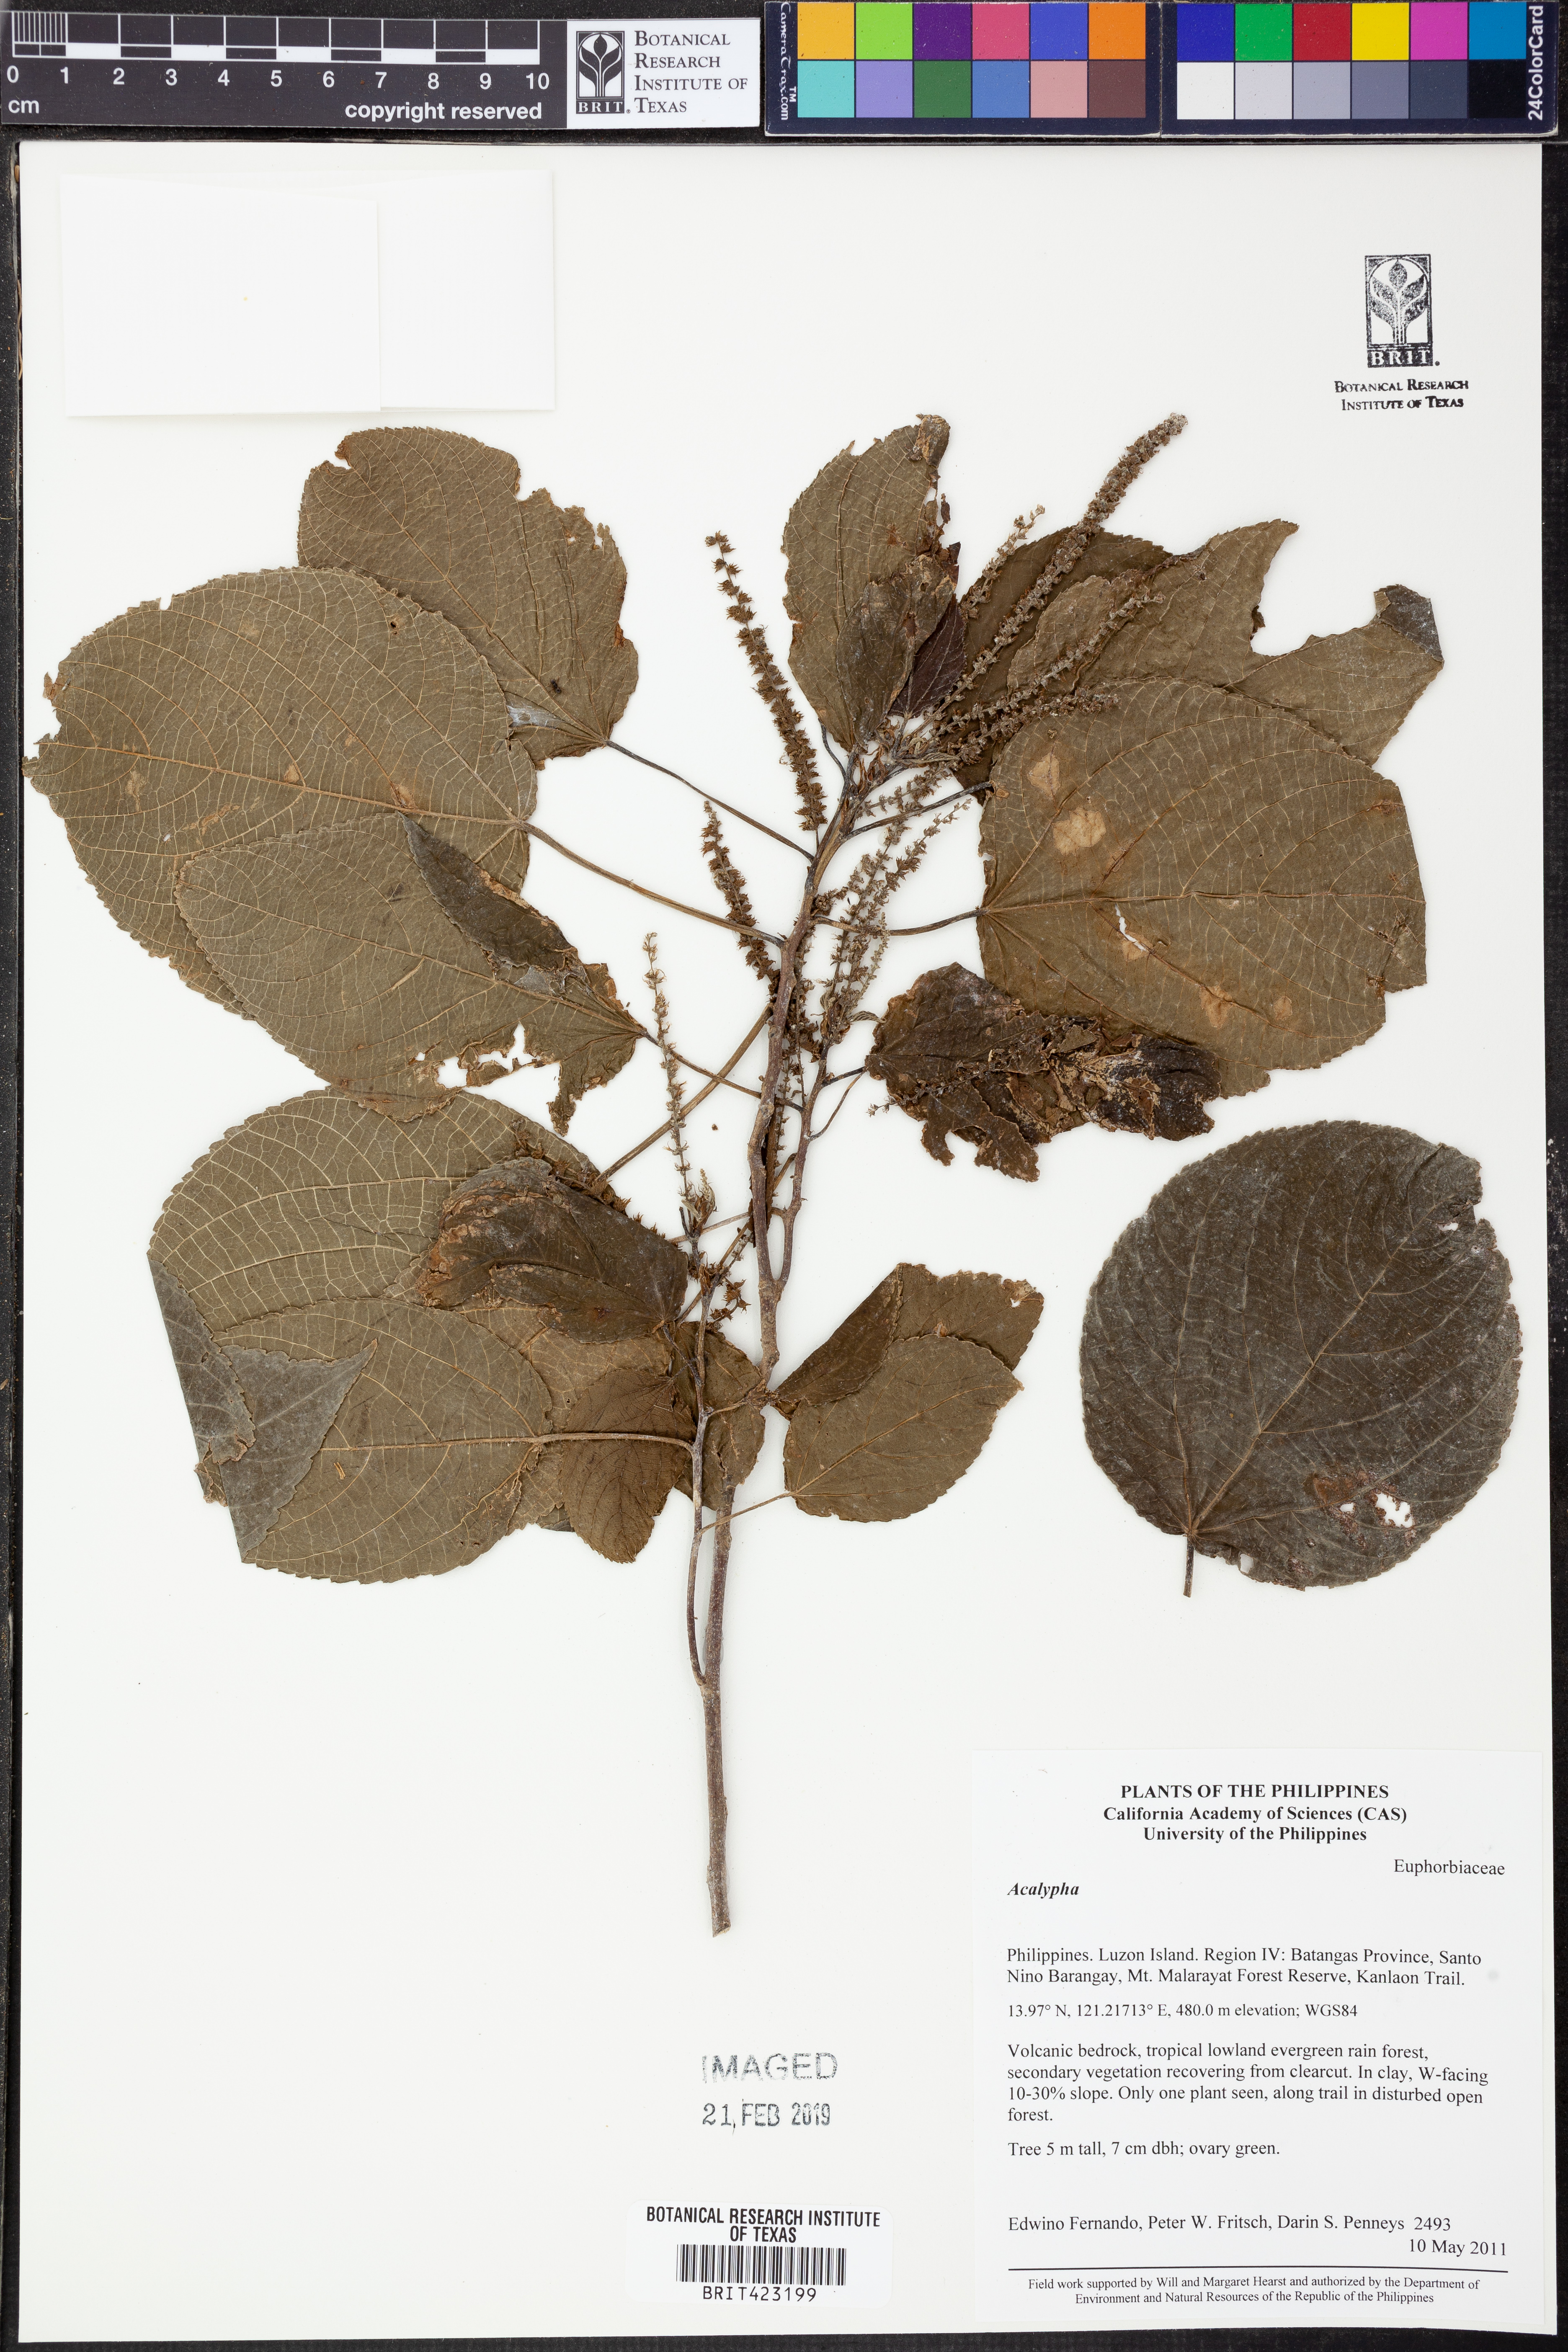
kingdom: Plantae
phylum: Tracheophyta
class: Magnoliopsida
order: Malpighiales
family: Euphorbiaceae
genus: Acalypha
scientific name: Acalypha
